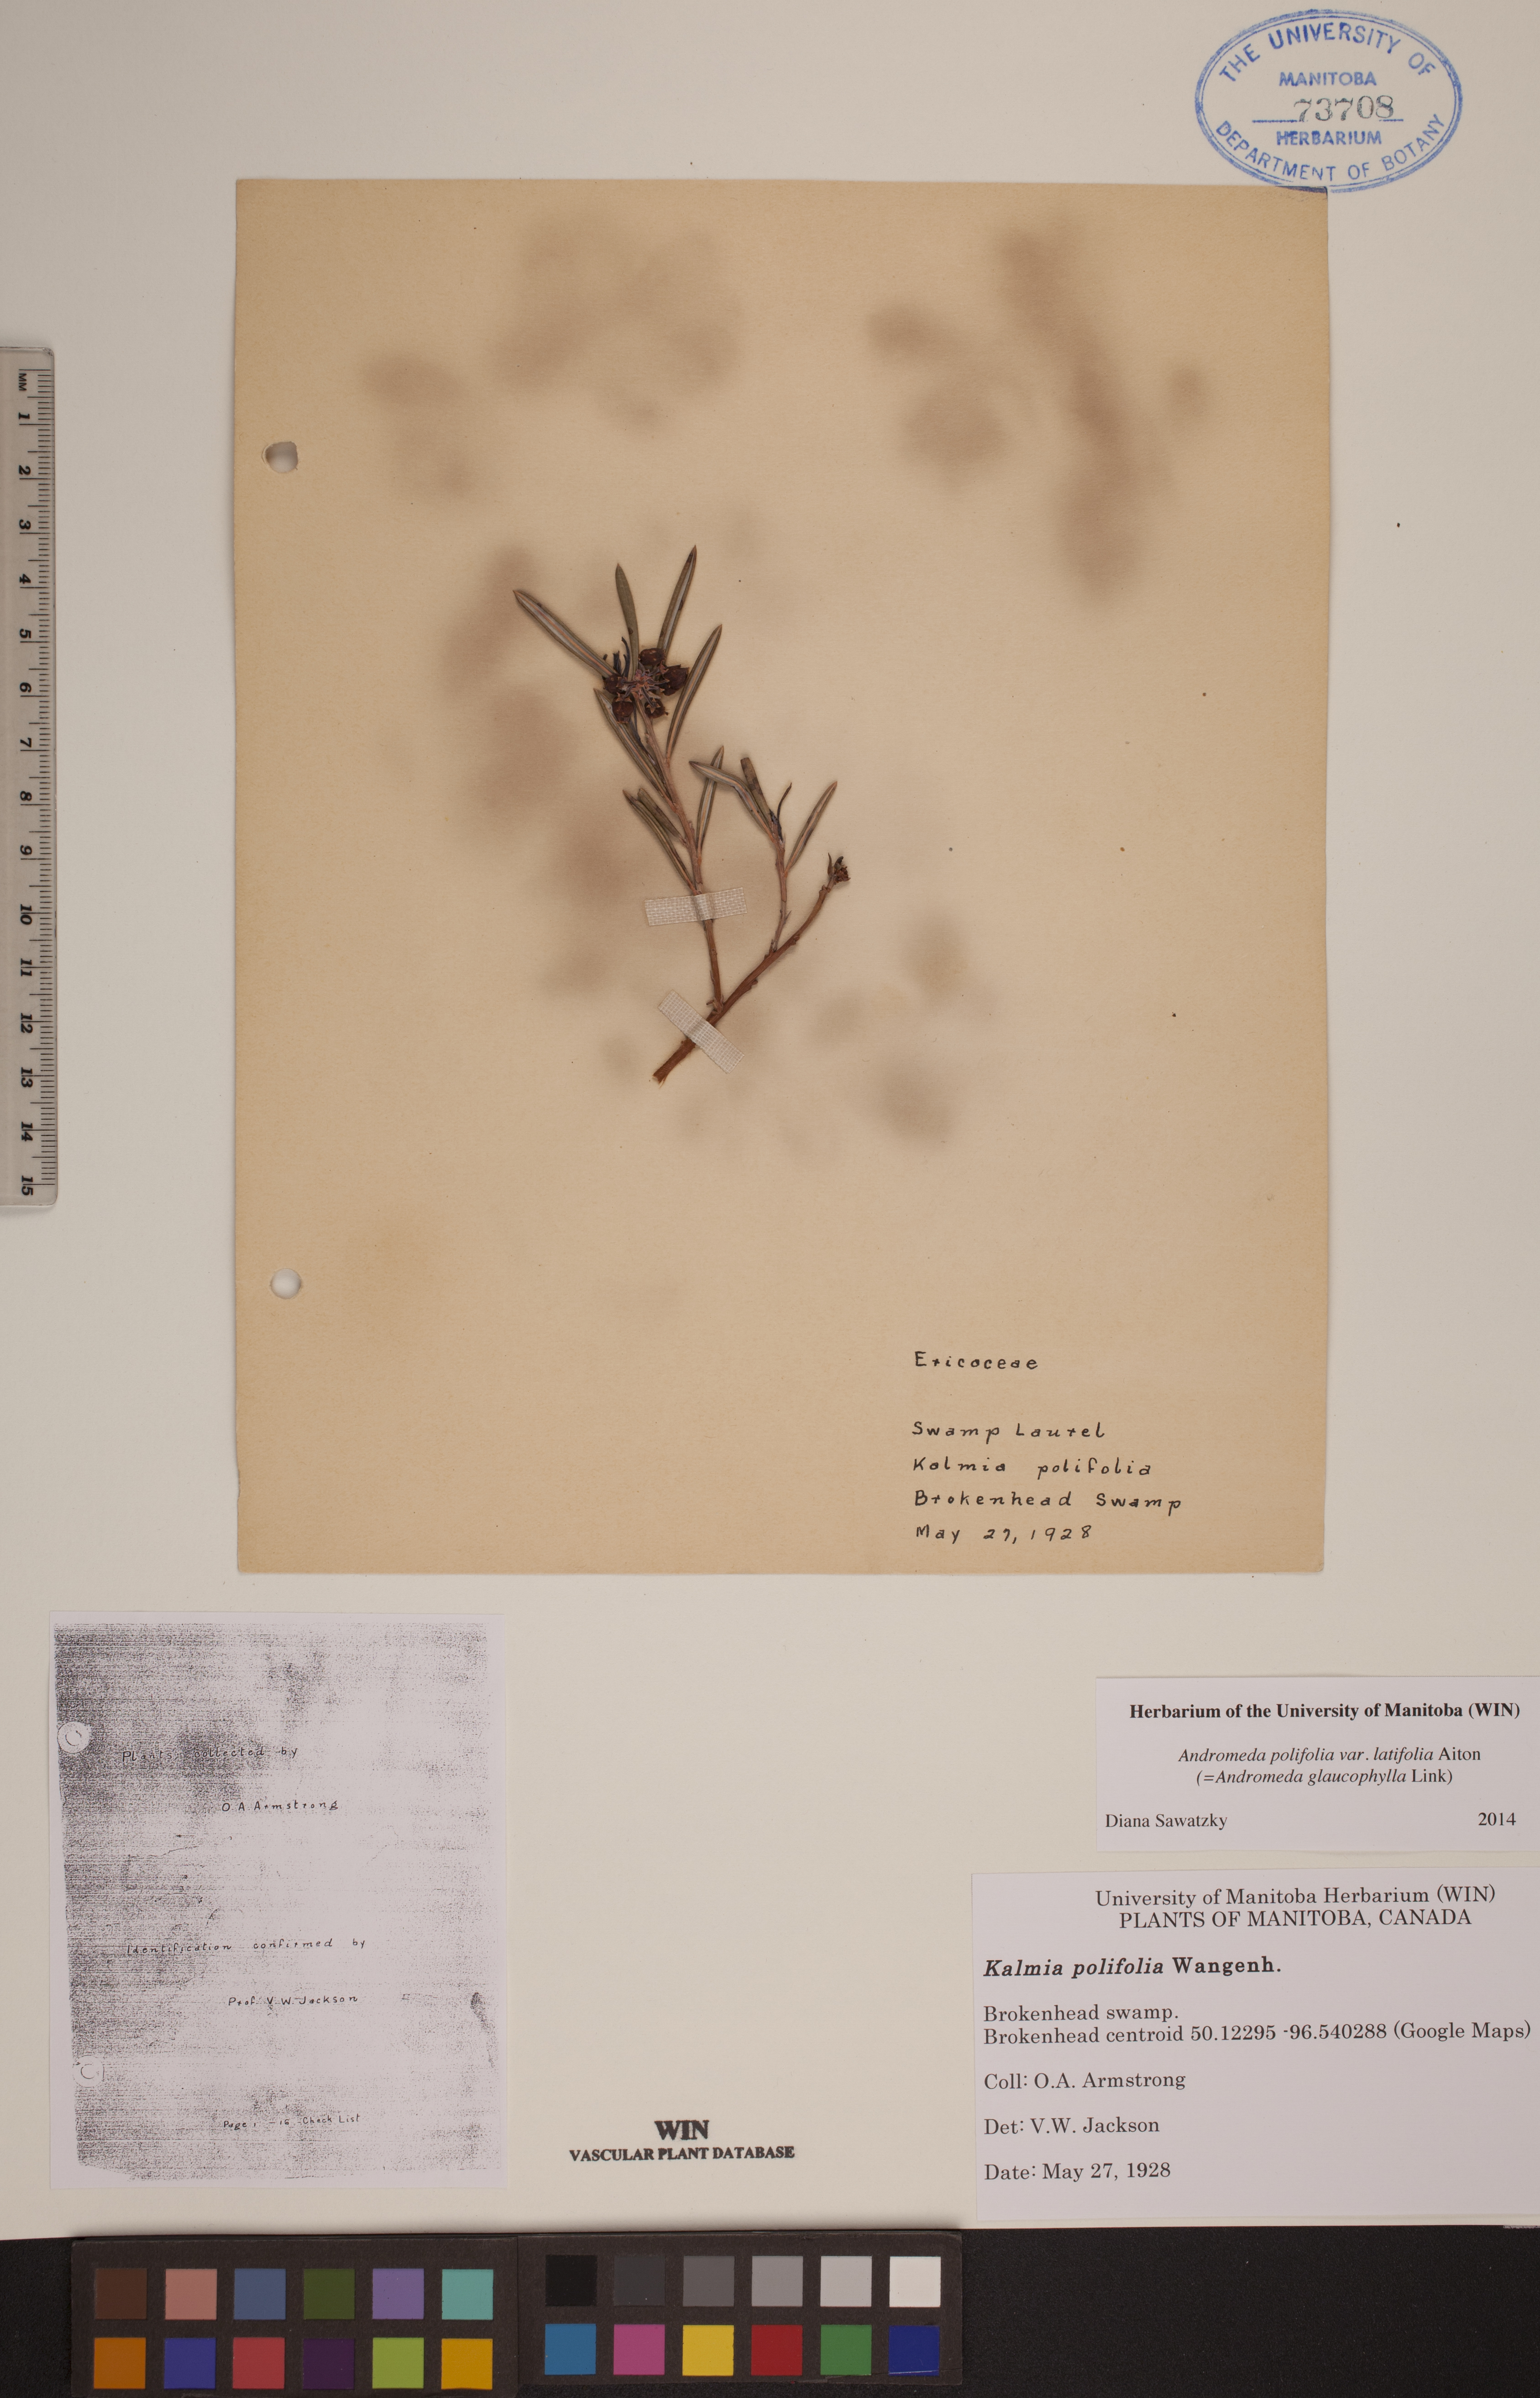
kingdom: Plantae
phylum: Tracheophyta
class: Magnoliopsida
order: Ericales
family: Ericaceae
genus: Andromeda
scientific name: Andromeda polifolia
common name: Bog-rosemary
